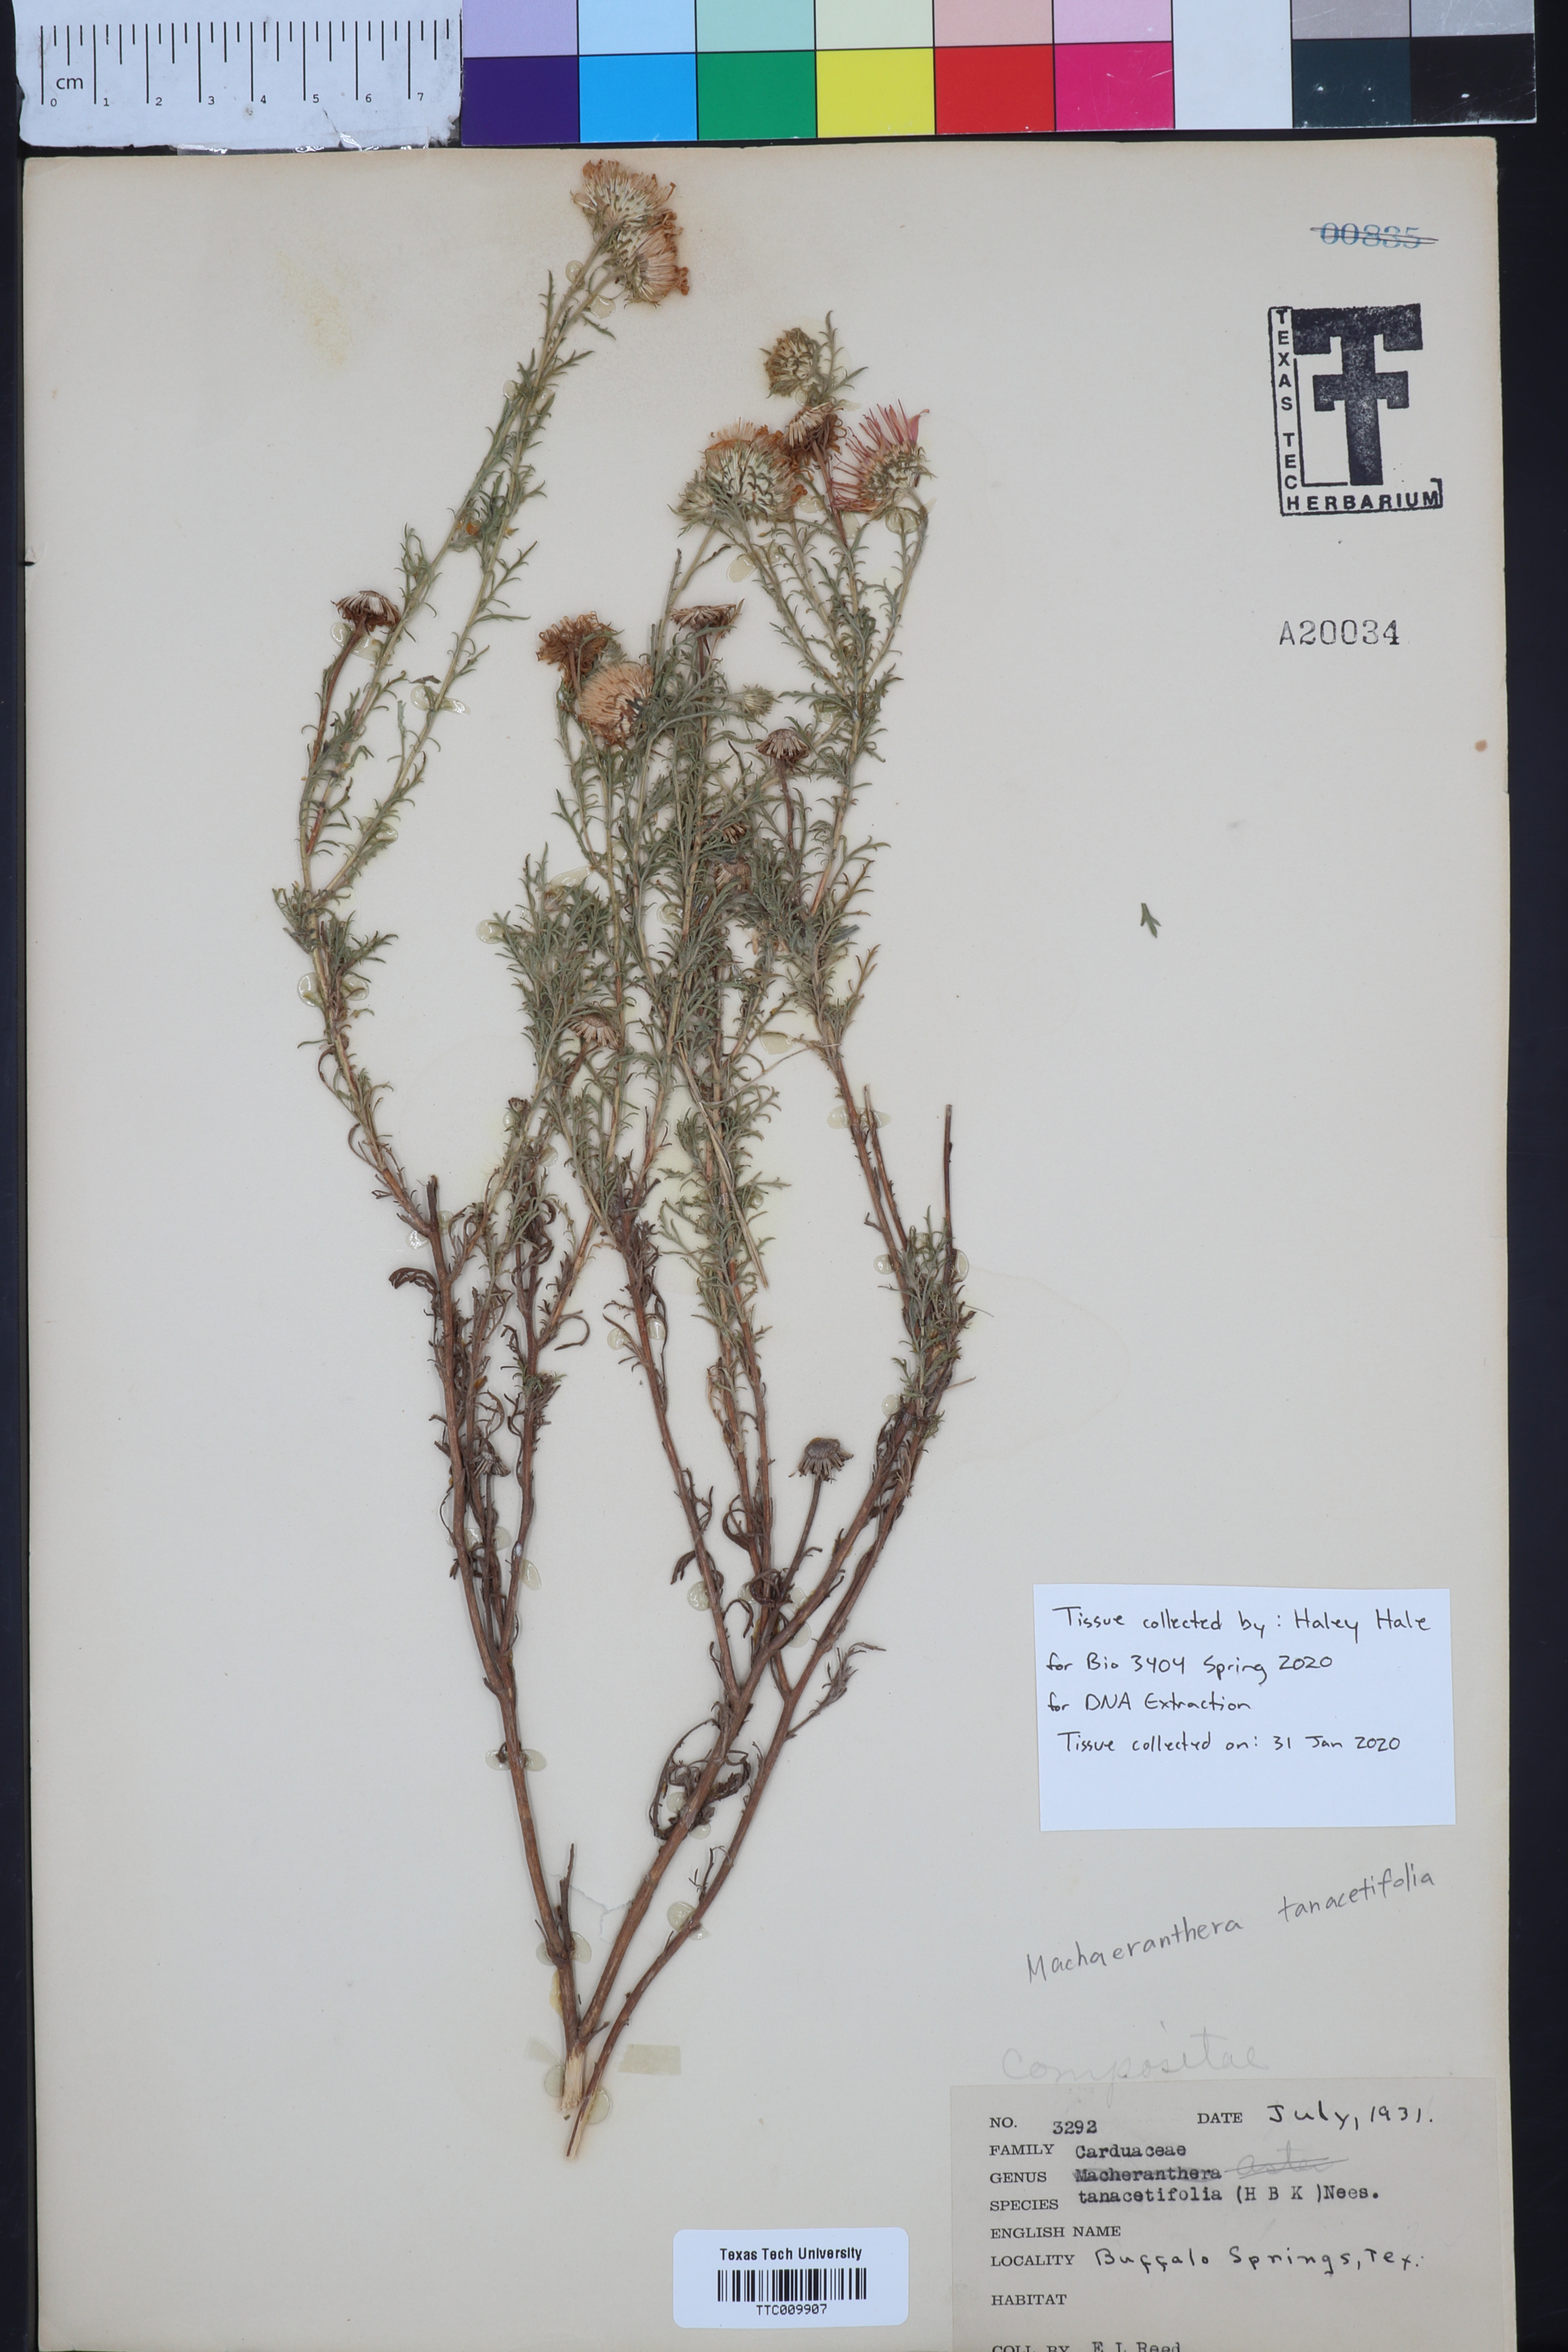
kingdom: Plantae
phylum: Tracheophyta
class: Magnoliopsida
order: Asterales
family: Asteraceae
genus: Machaeranthera
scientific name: Machaeranthera tanacetifolia
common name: Tansy-aster
